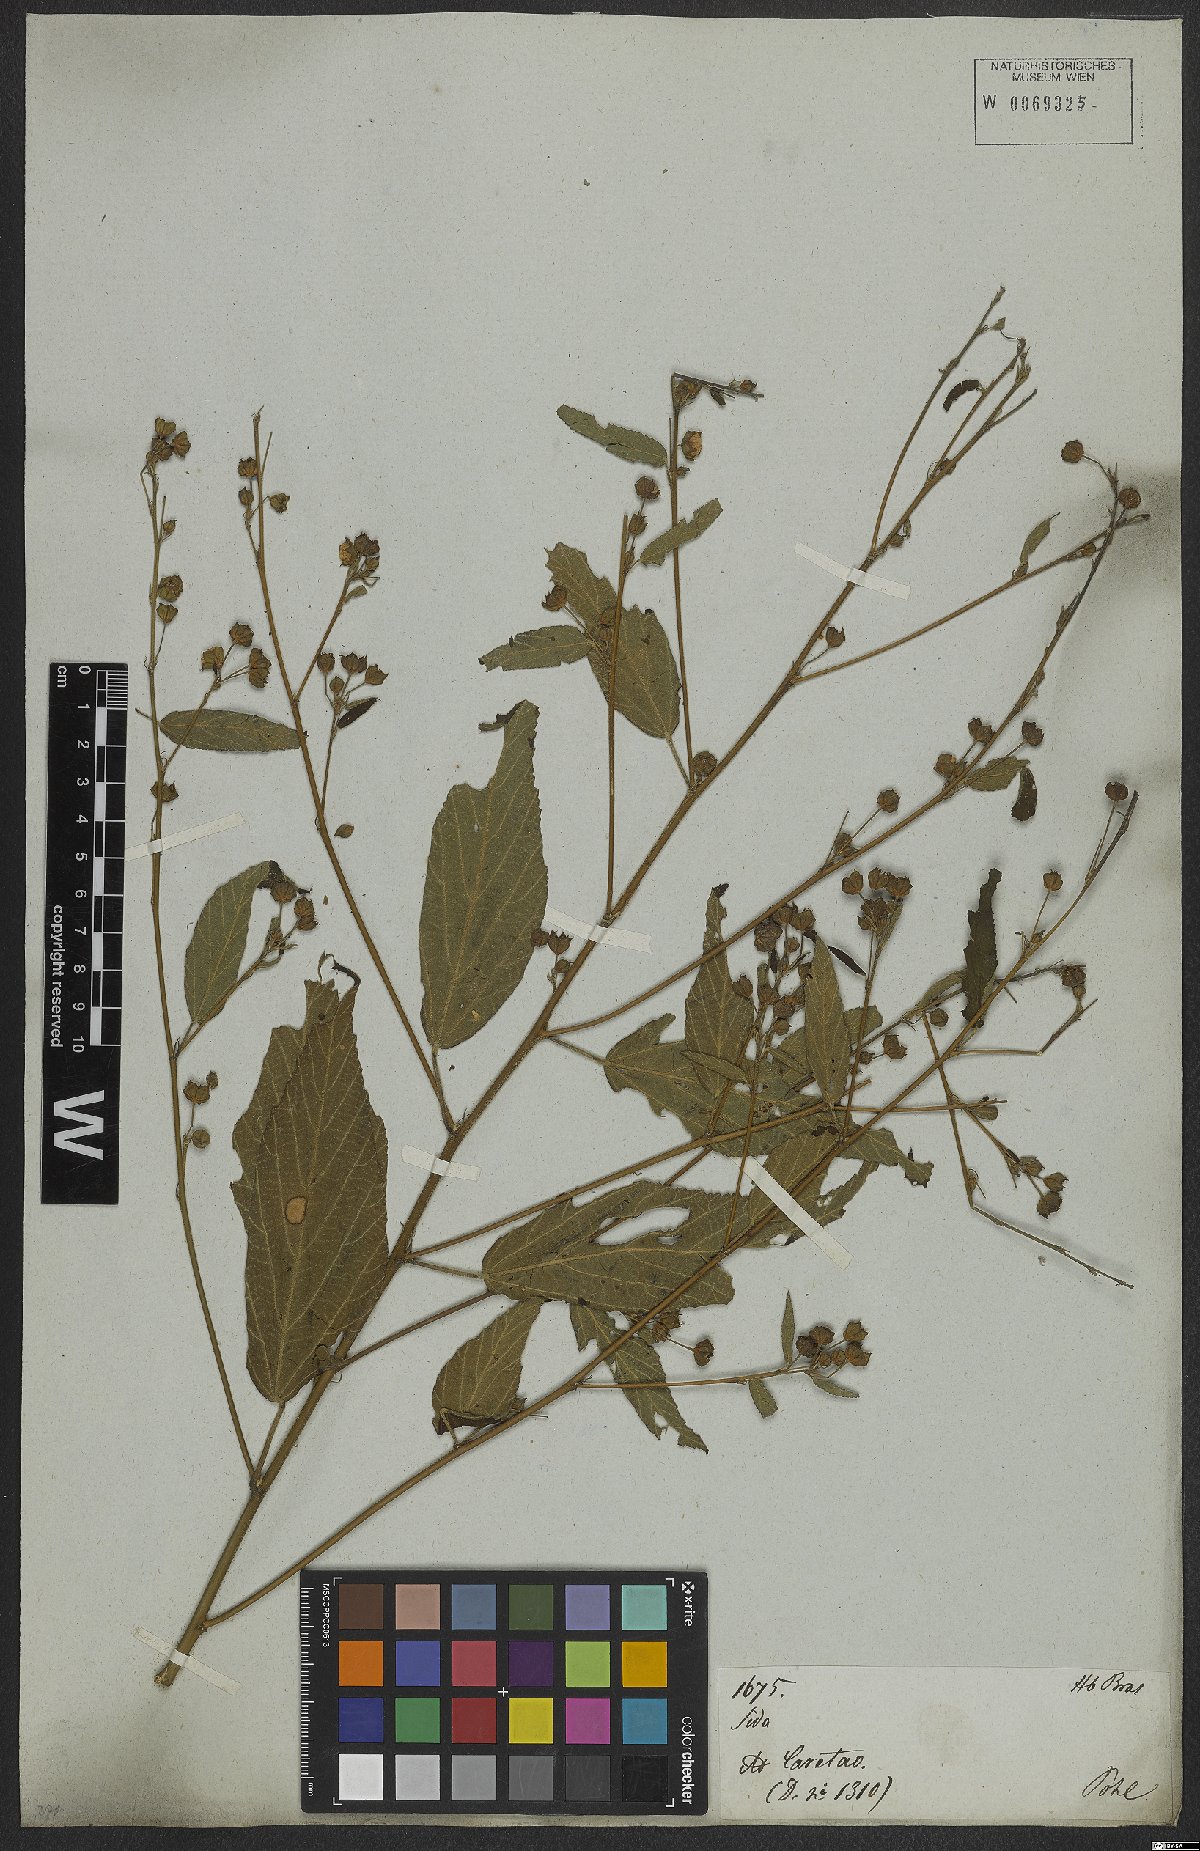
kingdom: Plantae
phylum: Tracheophyta
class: Magnoliopsida
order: Malvales
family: Malvaceae
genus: Sida
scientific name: Sida rhombifolia
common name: Queensland-hemp
